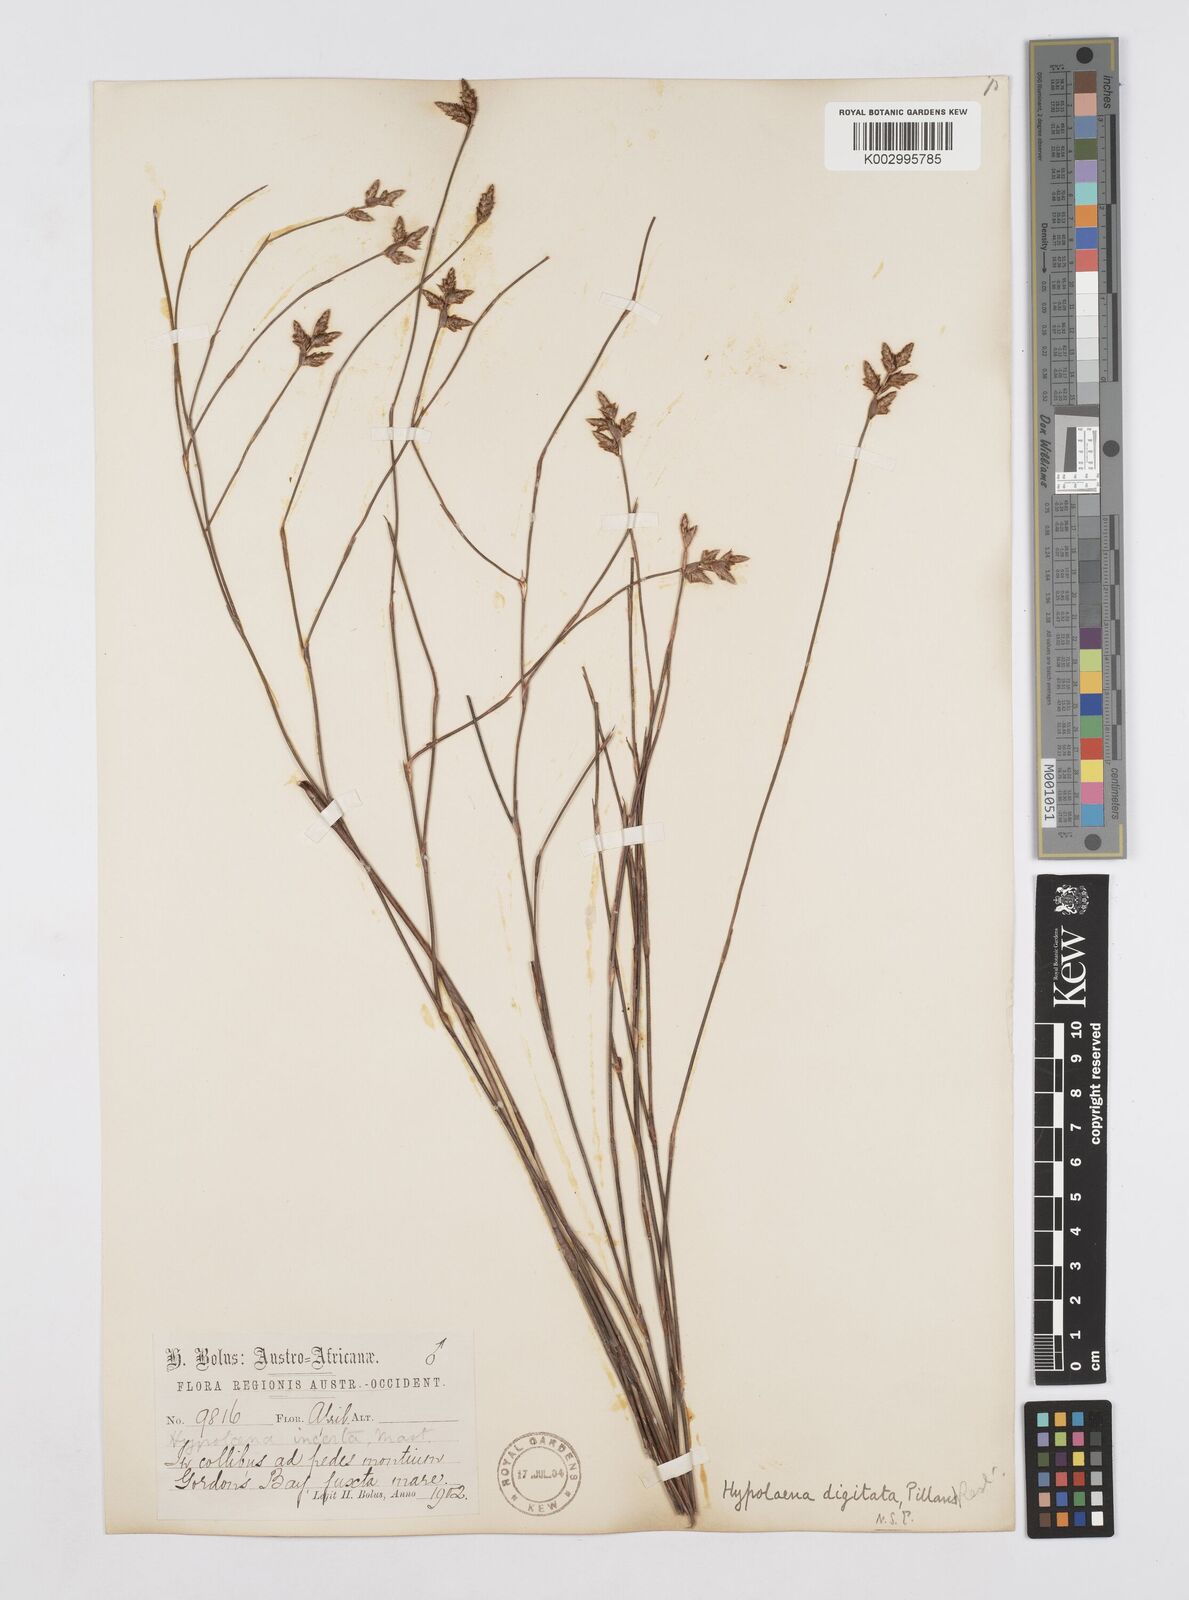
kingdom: Plantae
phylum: Tracheophyta
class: Liliopsida
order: Poales
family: Restionaceae
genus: Mastersiella
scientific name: Mastersiella digitata
